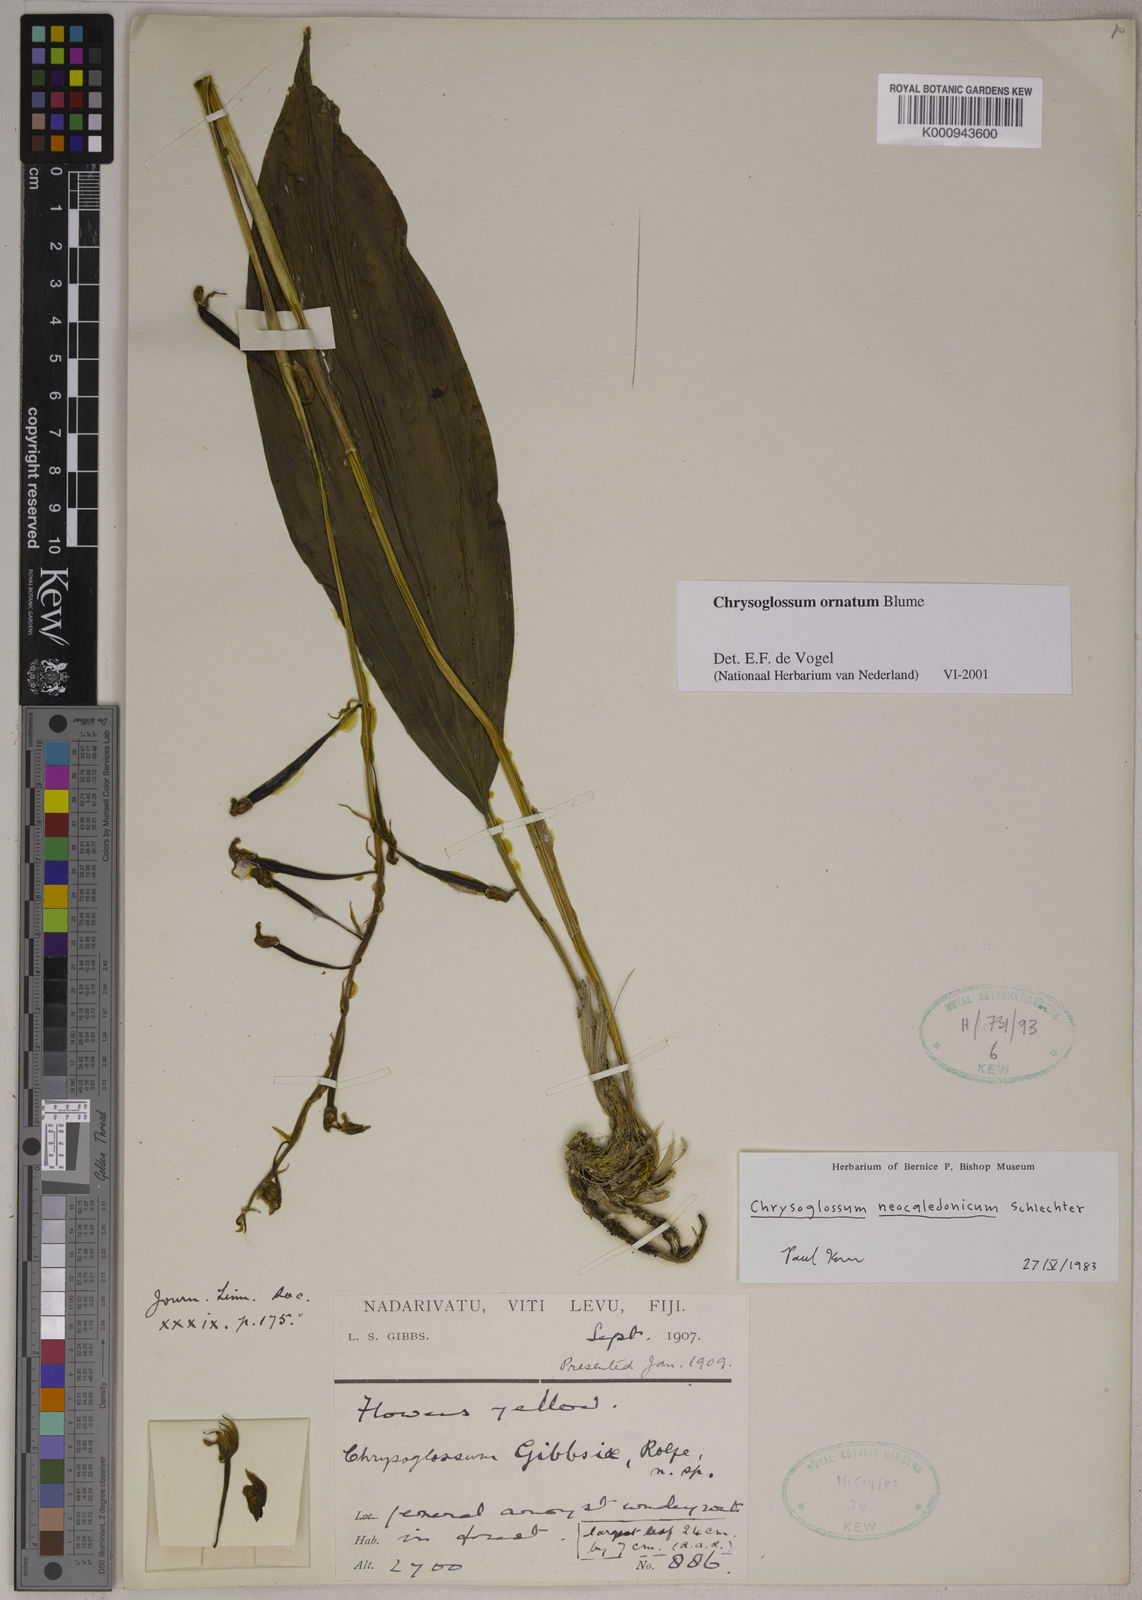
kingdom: Plantae
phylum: Tracheophyta
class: Liliopsida
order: Asparagales
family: Orchidaceae
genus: Chrysoglossum
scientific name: Chrysoglossum ornatum
